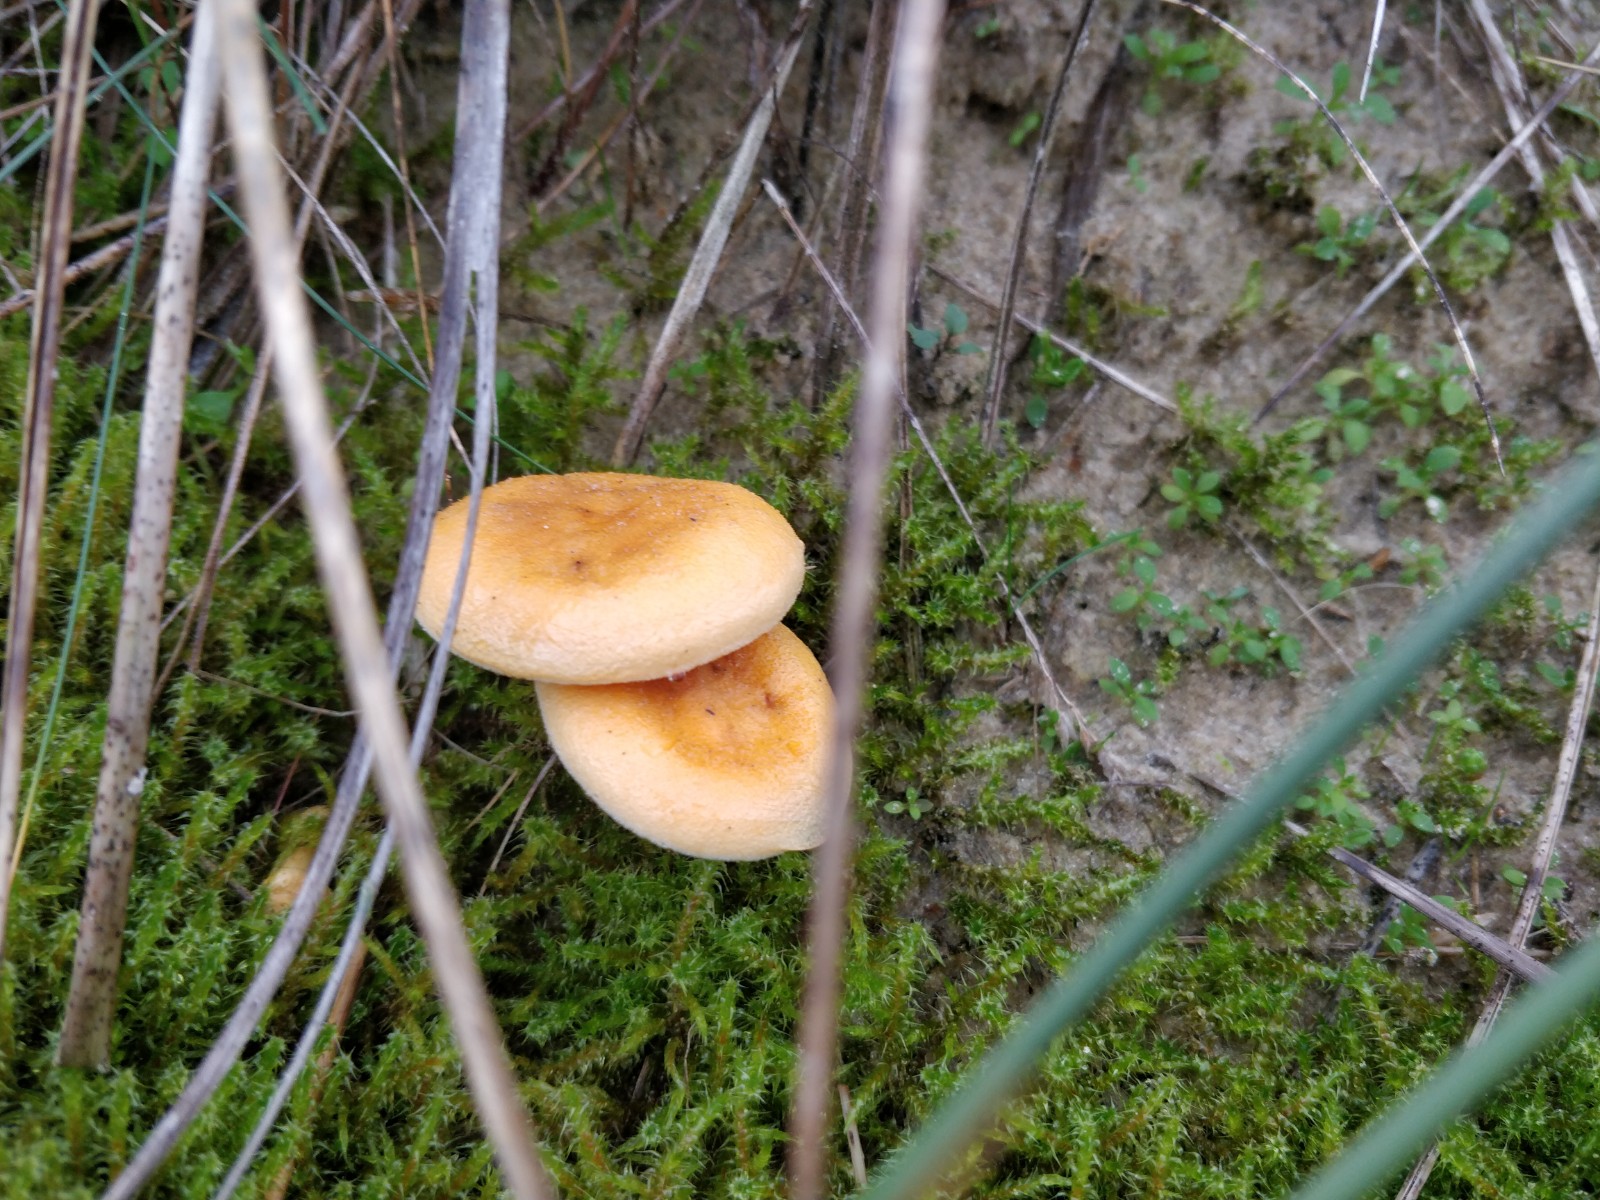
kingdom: Fungi
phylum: Basidiomycota
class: Agaricomycetes
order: Boletales
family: Hygrophoropsidaceae
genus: Hygrophoropsis
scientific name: Hygrophoropsis aurantiaca
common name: almindelig orangekantarel
